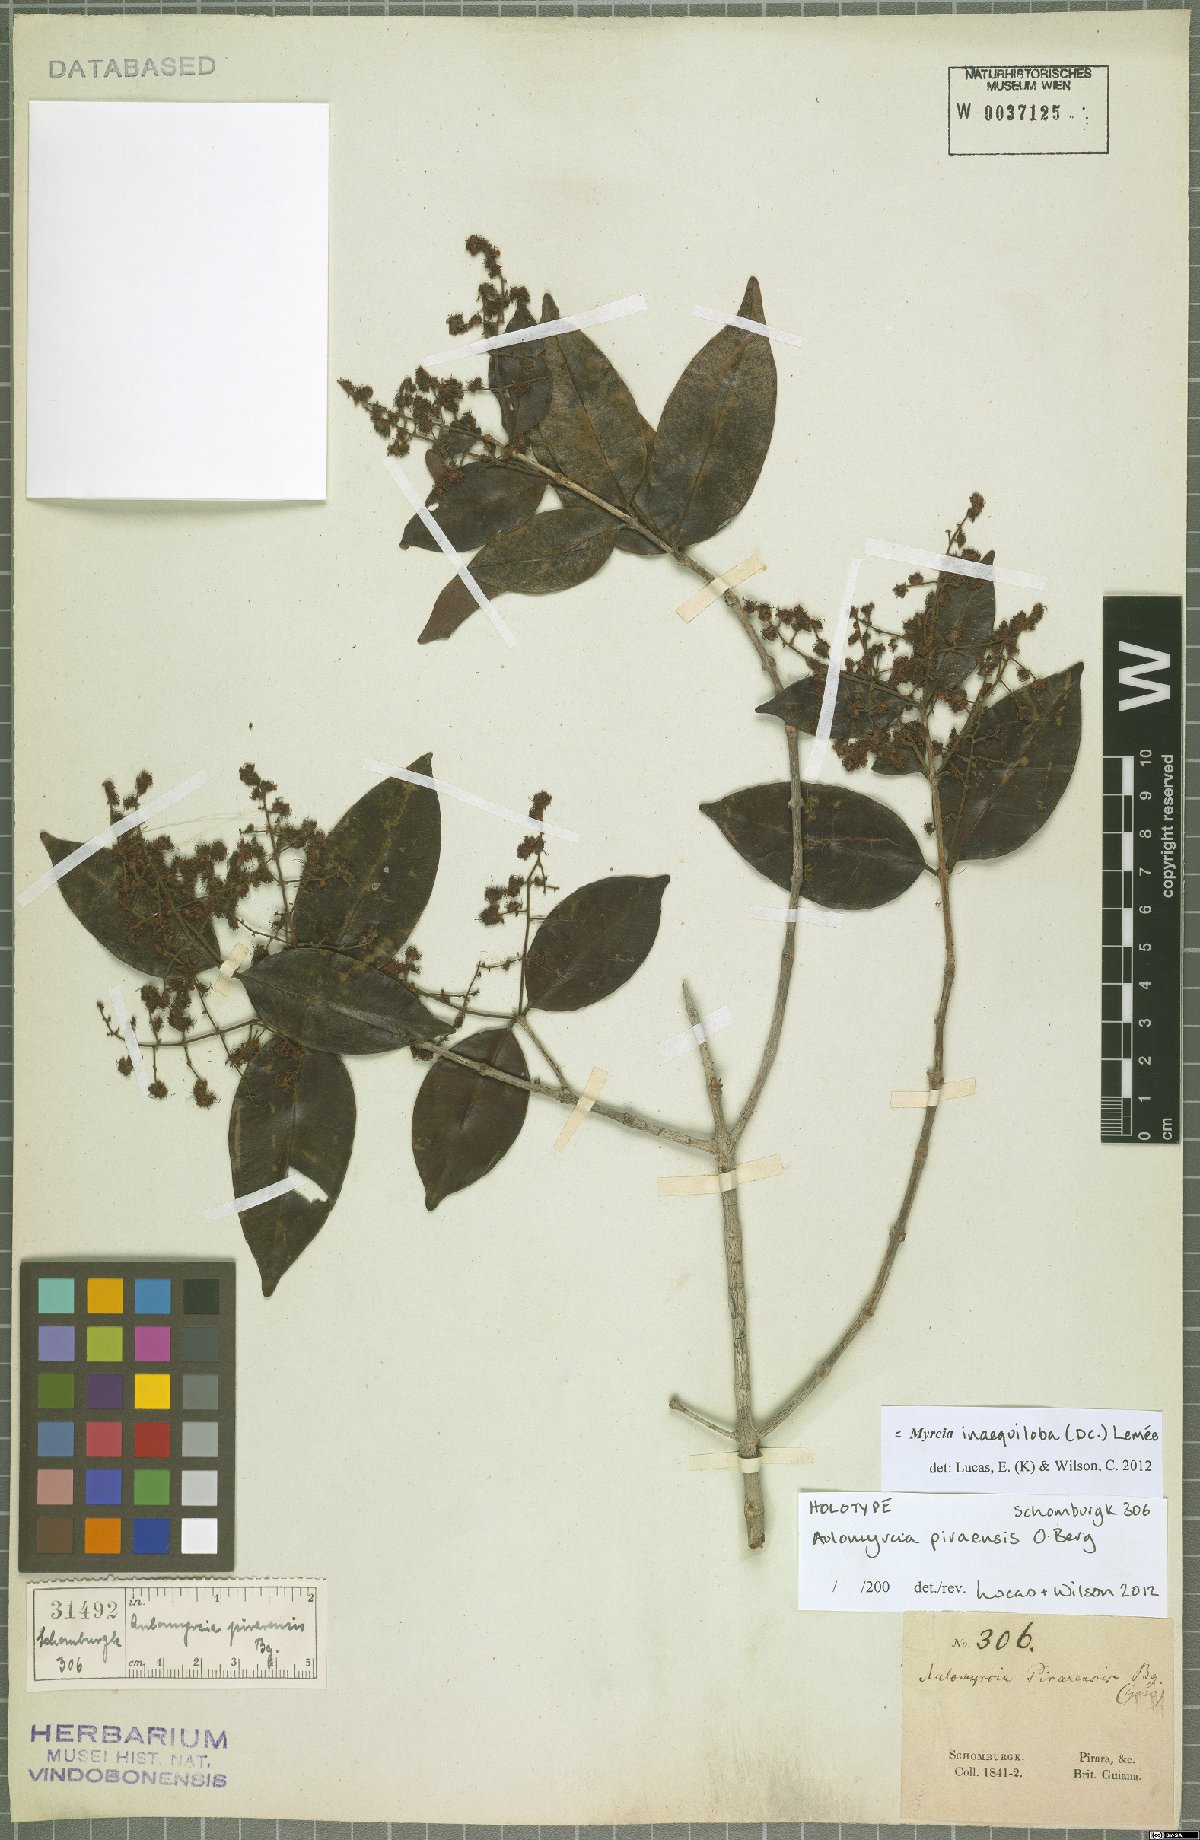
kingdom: Plantae
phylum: Tracheophyta
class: Magnoliopsida
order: Myrtales
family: Myrtaceae
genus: Myrcia
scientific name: Myrcia inaequiloba
